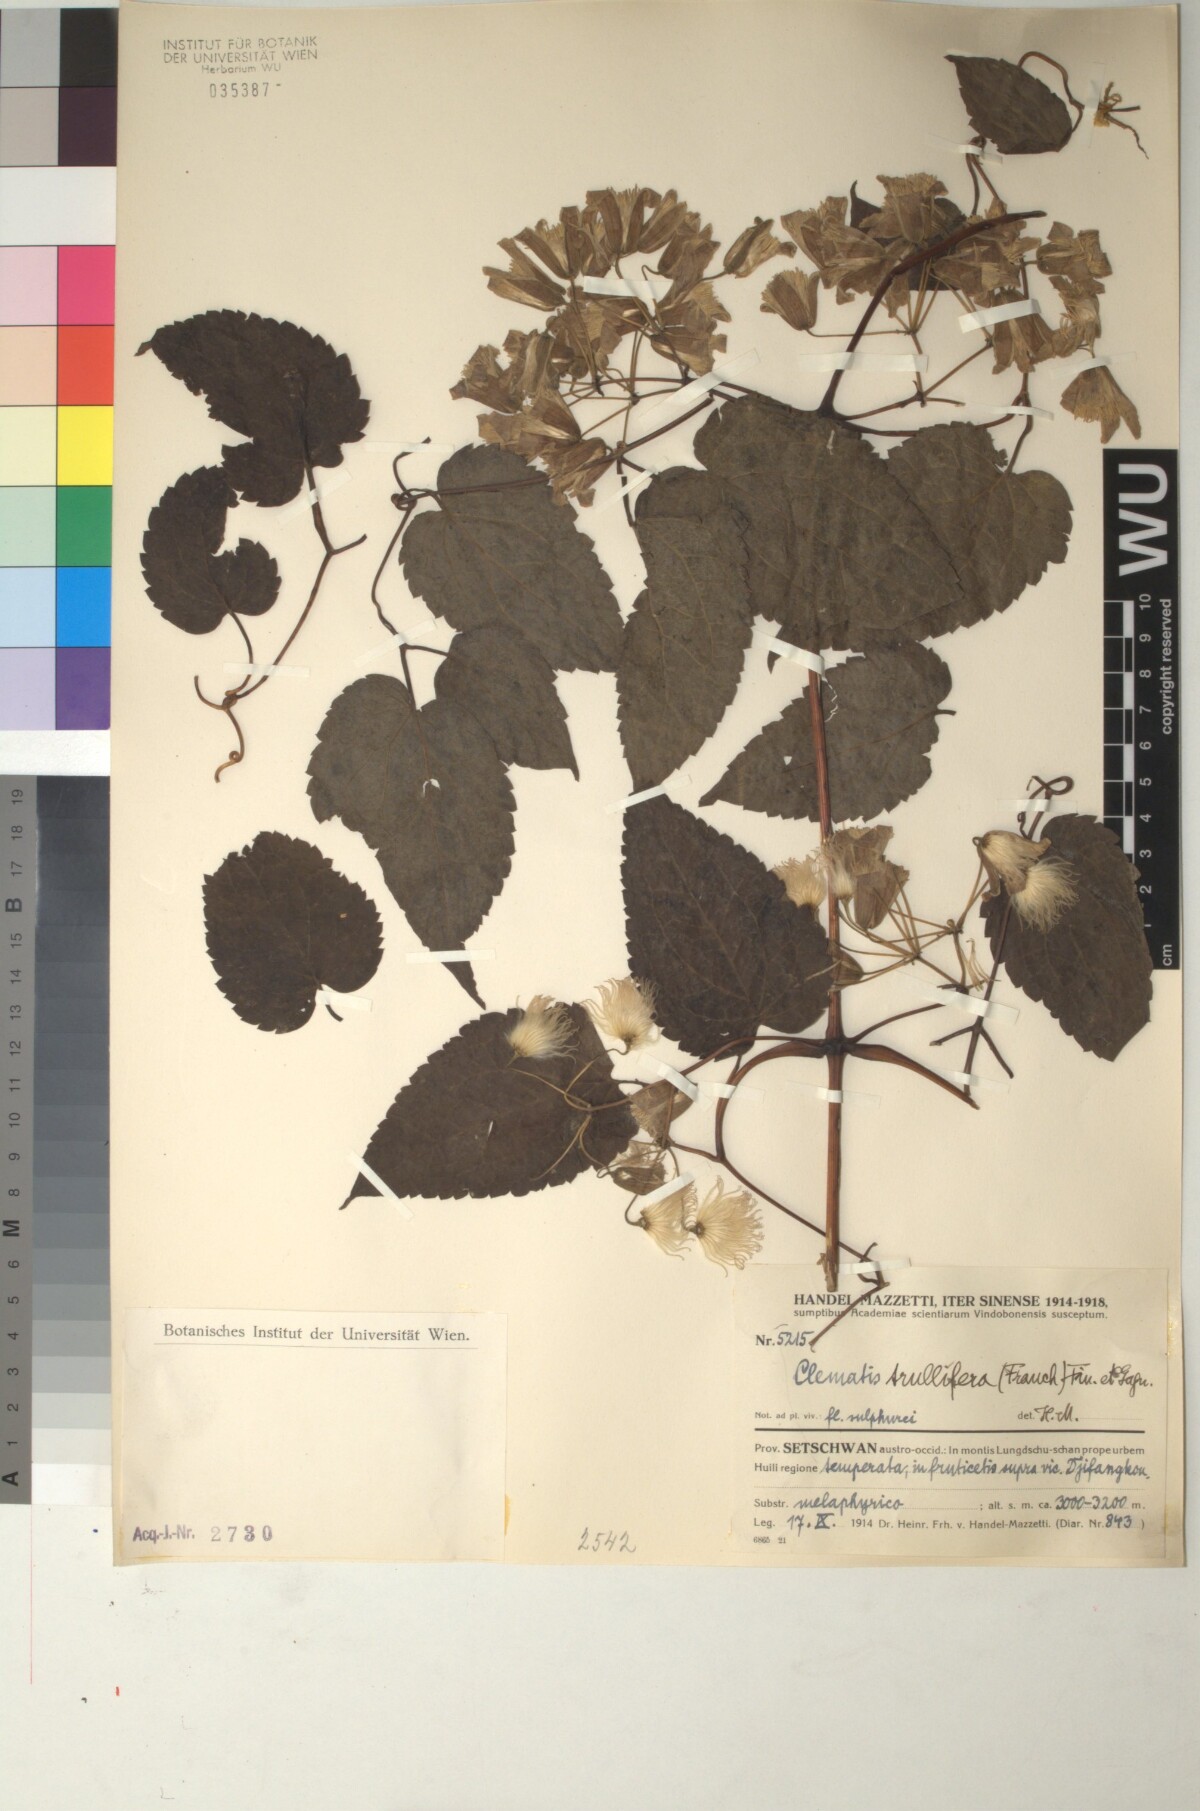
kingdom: Plantae
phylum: Tracheophyta
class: Magnoliopsida
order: Ranunculales
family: Ranunculaceae
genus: Clematis
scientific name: Clematis connata
